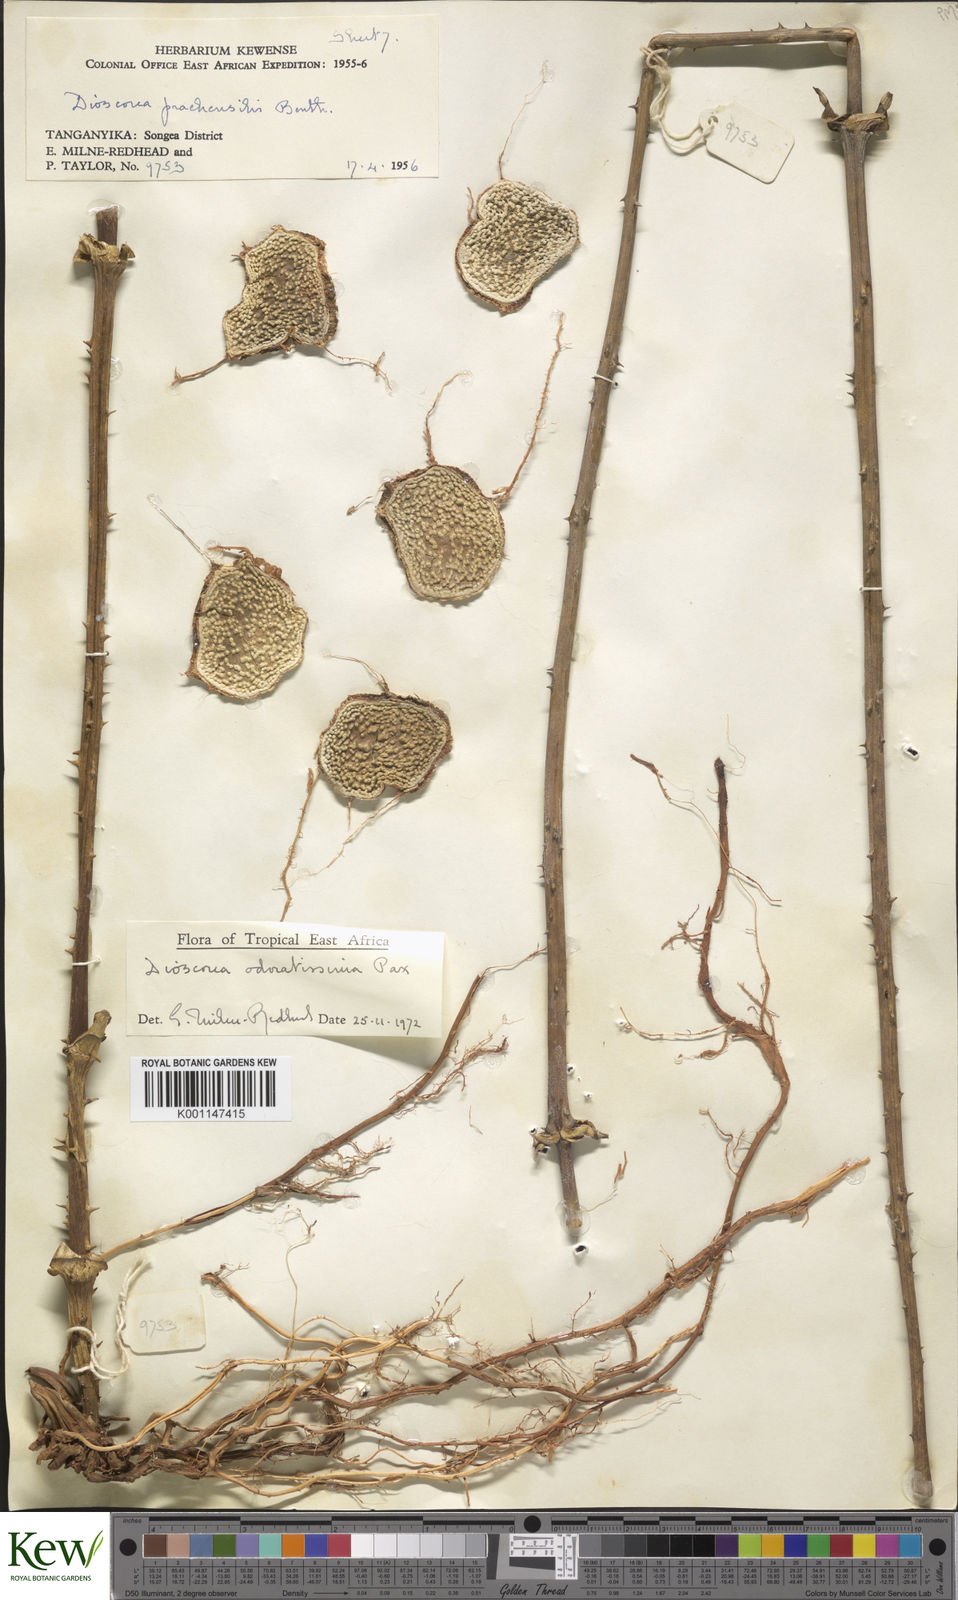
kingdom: Plantae
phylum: Tracheophyta
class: Liliopsida
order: Dioscoreales
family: Dioscoreaceae
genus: Dioscorea
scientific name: Dioscorea praehensilis
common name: Bush yam
